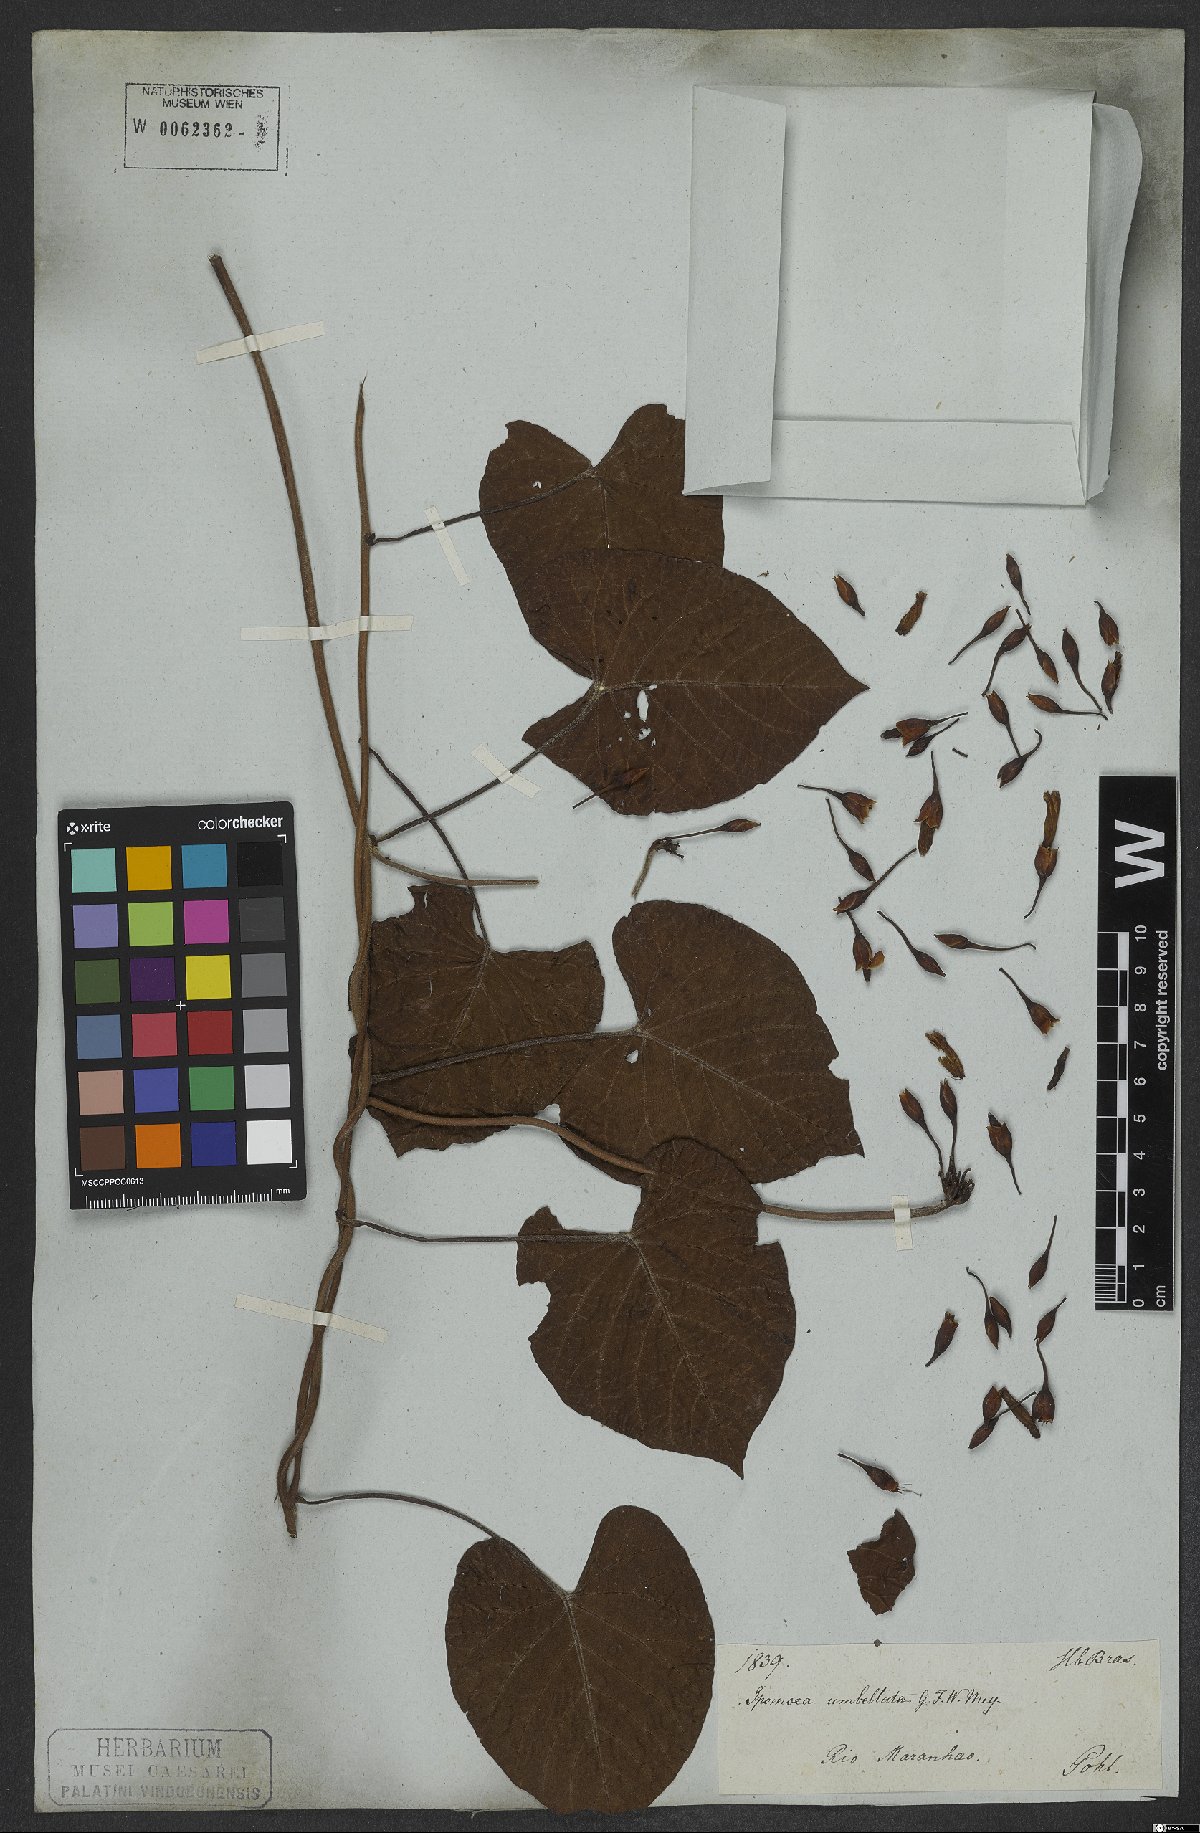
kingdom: Plantae
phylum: Tracheophyta
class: Magnoliopsida
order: Solanales
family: Convolvulaceae
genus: Distimake
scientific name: Distimake tomentosus
